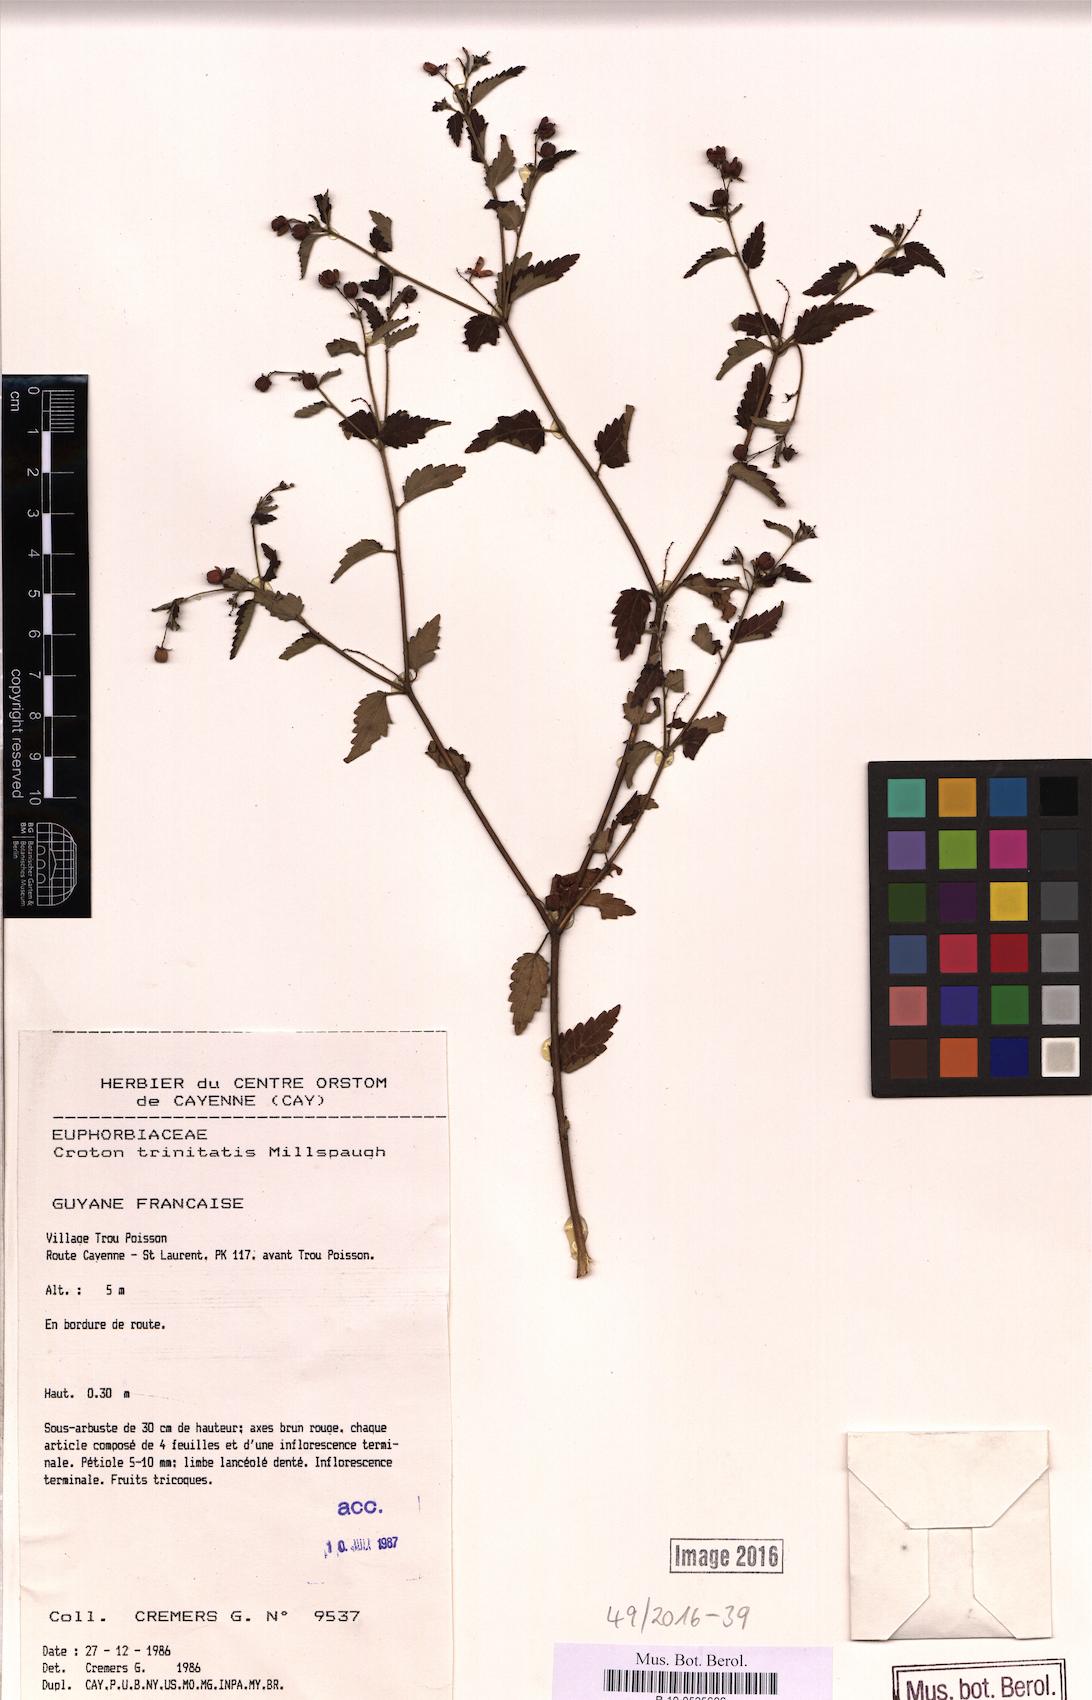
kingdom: Plantae
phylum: Tracheophyta
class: Magnoliopsida
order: Malpighiales
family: Euphorbiaceae
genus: Croton
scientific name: Croton trinitatis
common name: Roadside croton
